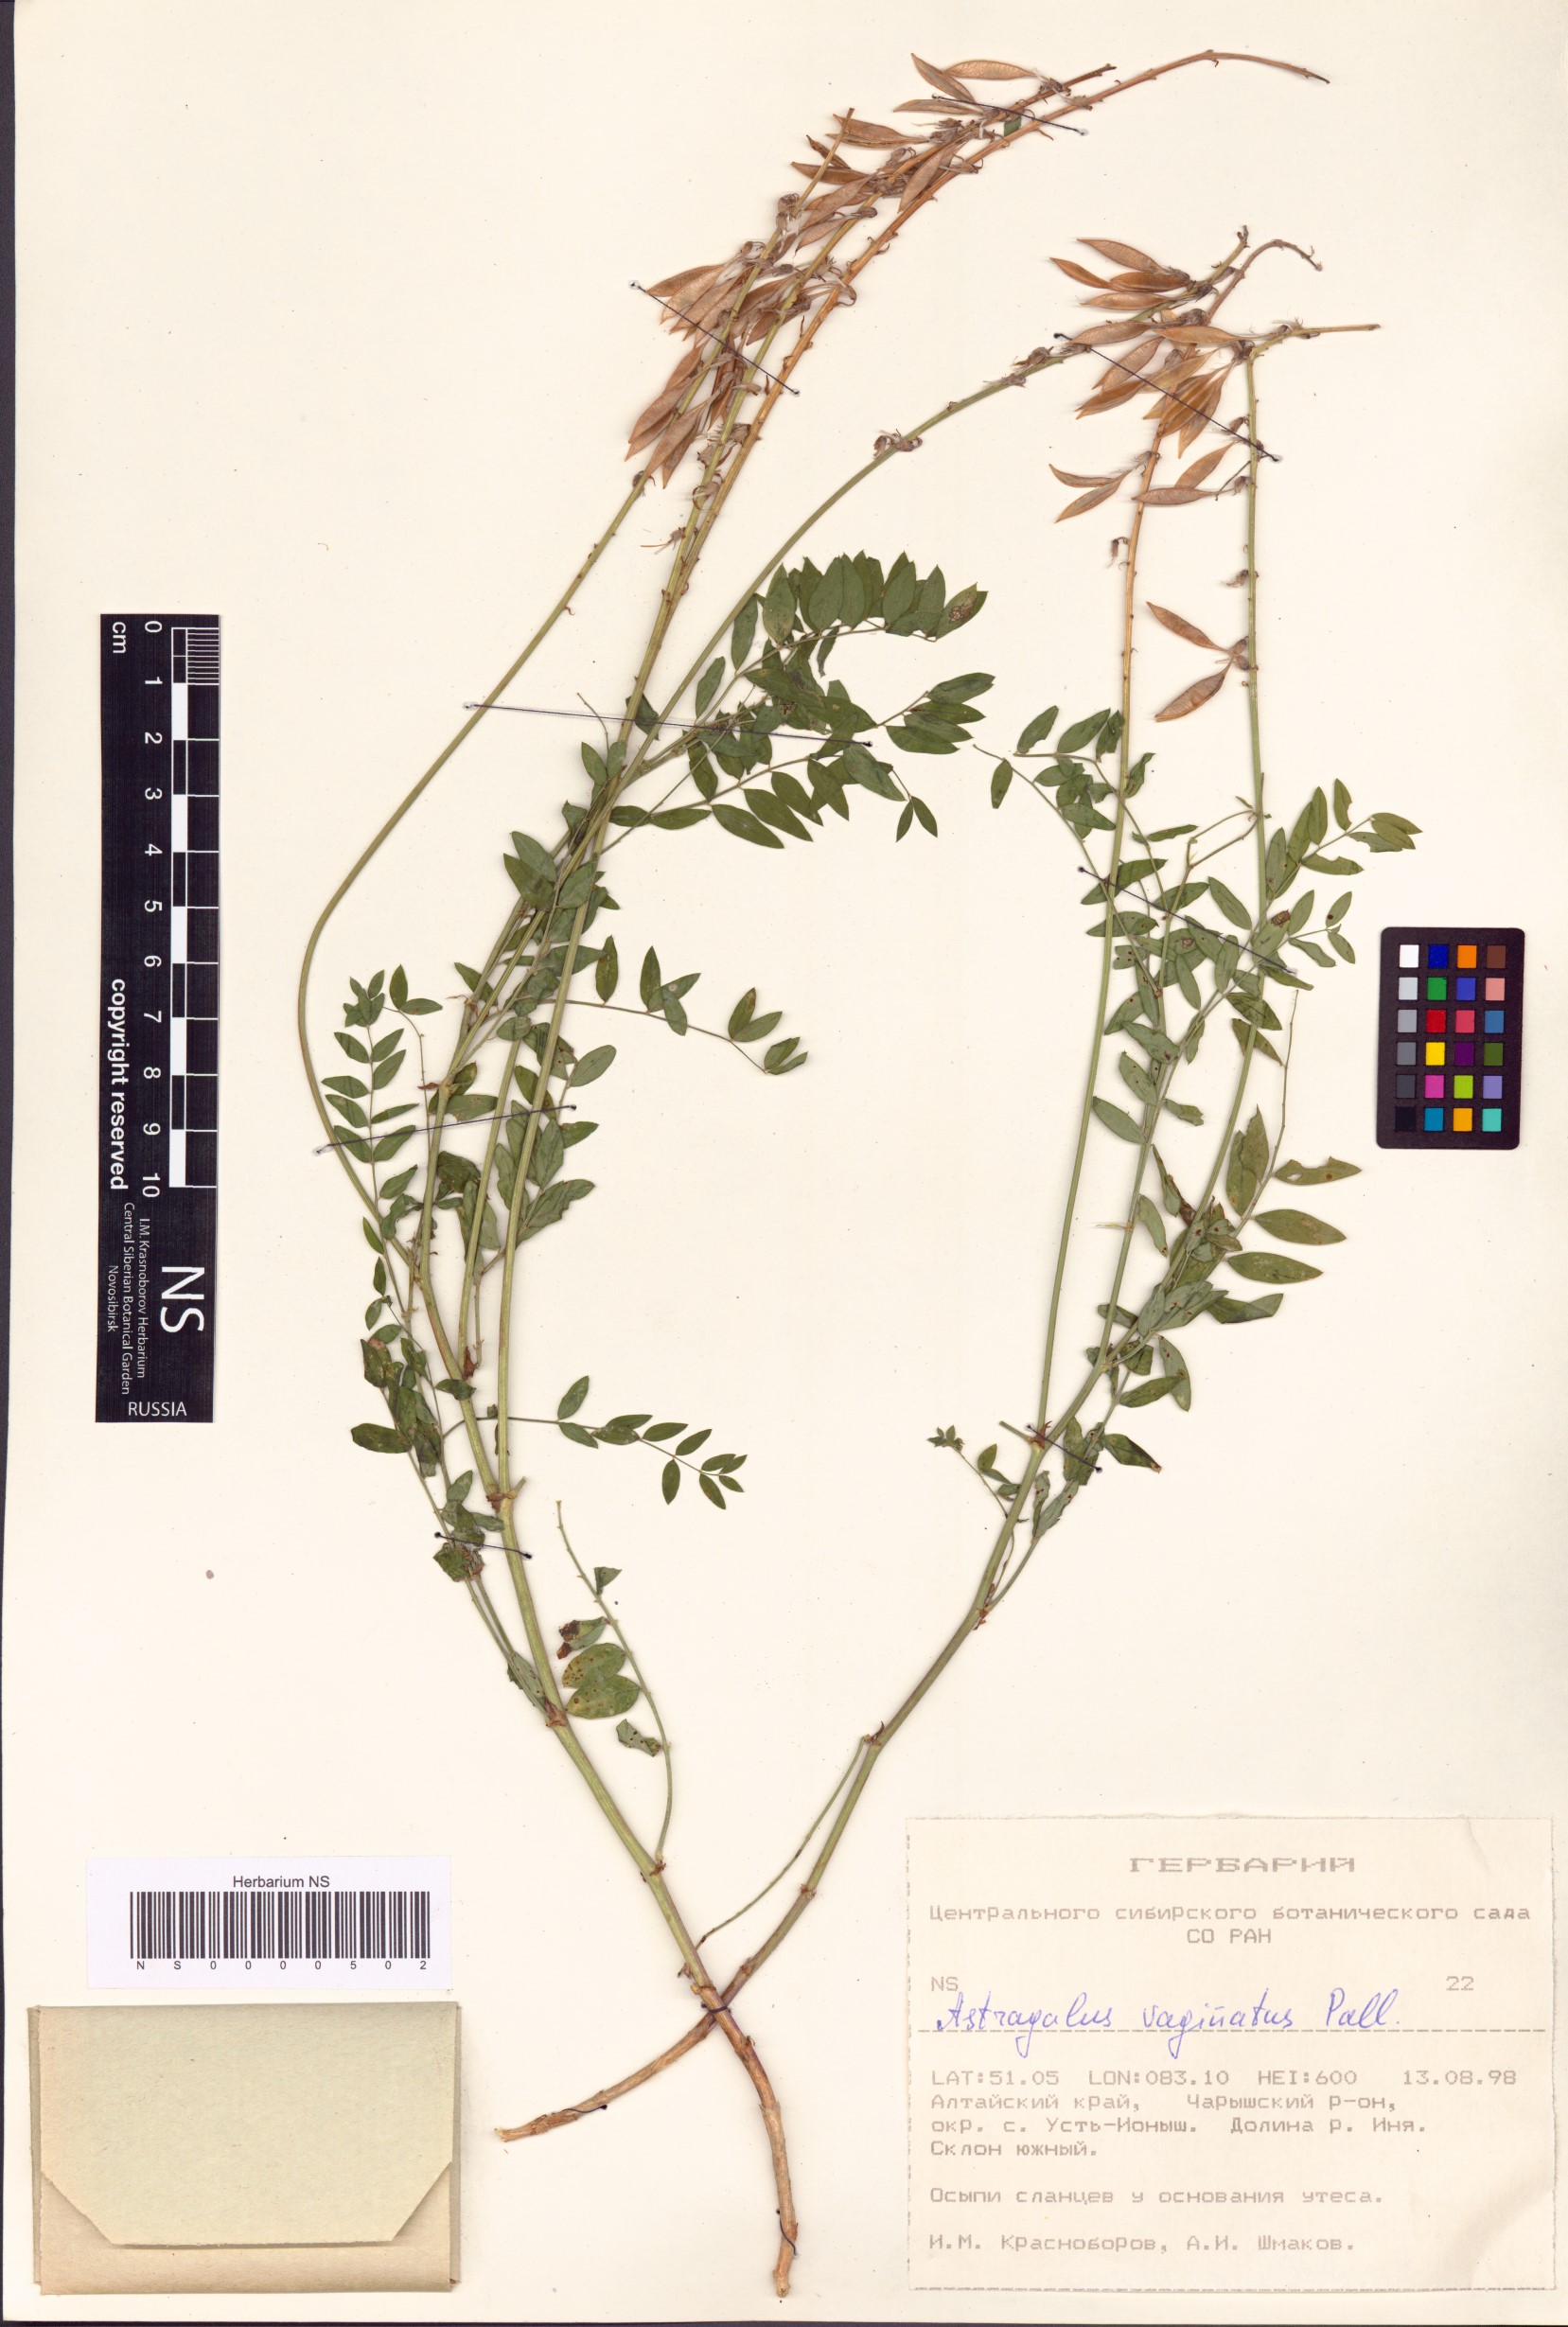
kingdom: Plantae
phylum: Tracheophyta
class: Magnoliopsida
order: Fabales
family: Fabaceae
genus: Astragalus
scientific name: Astragalus vaginatus
